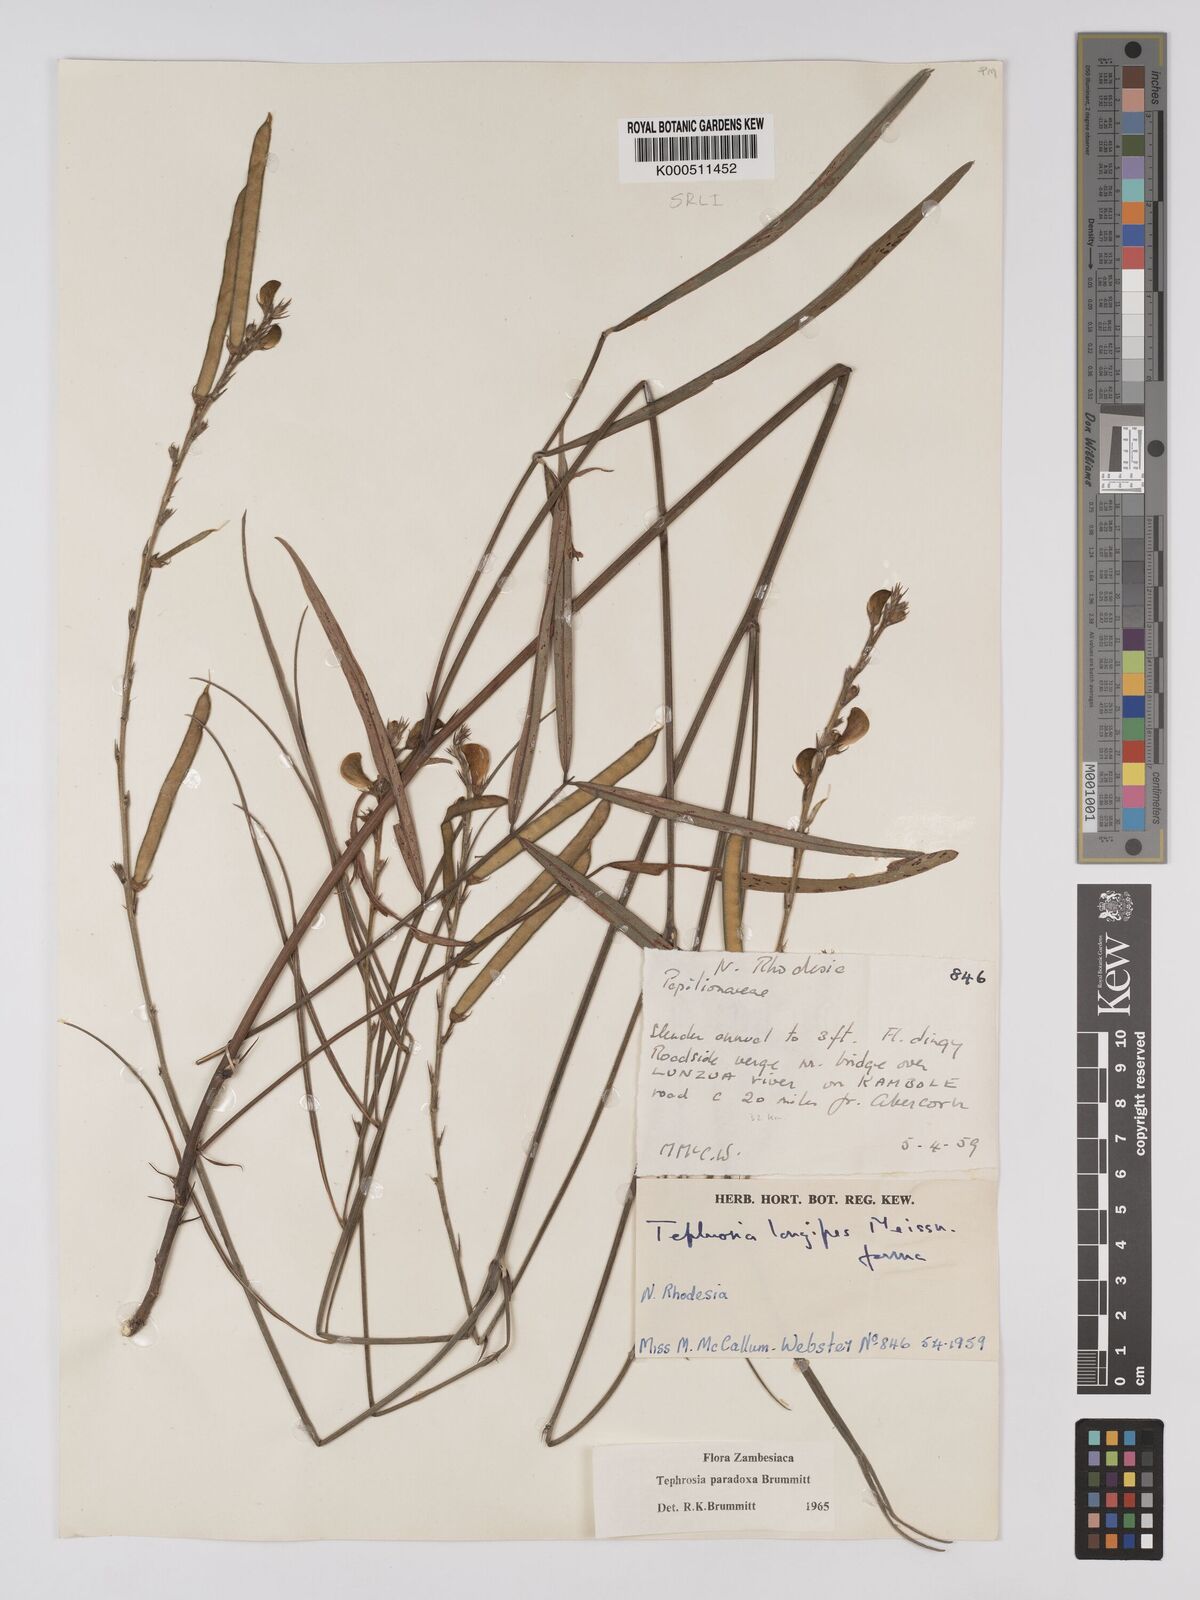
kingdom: Plantae
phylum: Tracheophyta
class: Magnoliopsida
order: Fabales
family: Fabaceae
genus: Tephrosia
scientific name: Tephrosia paradoxa
